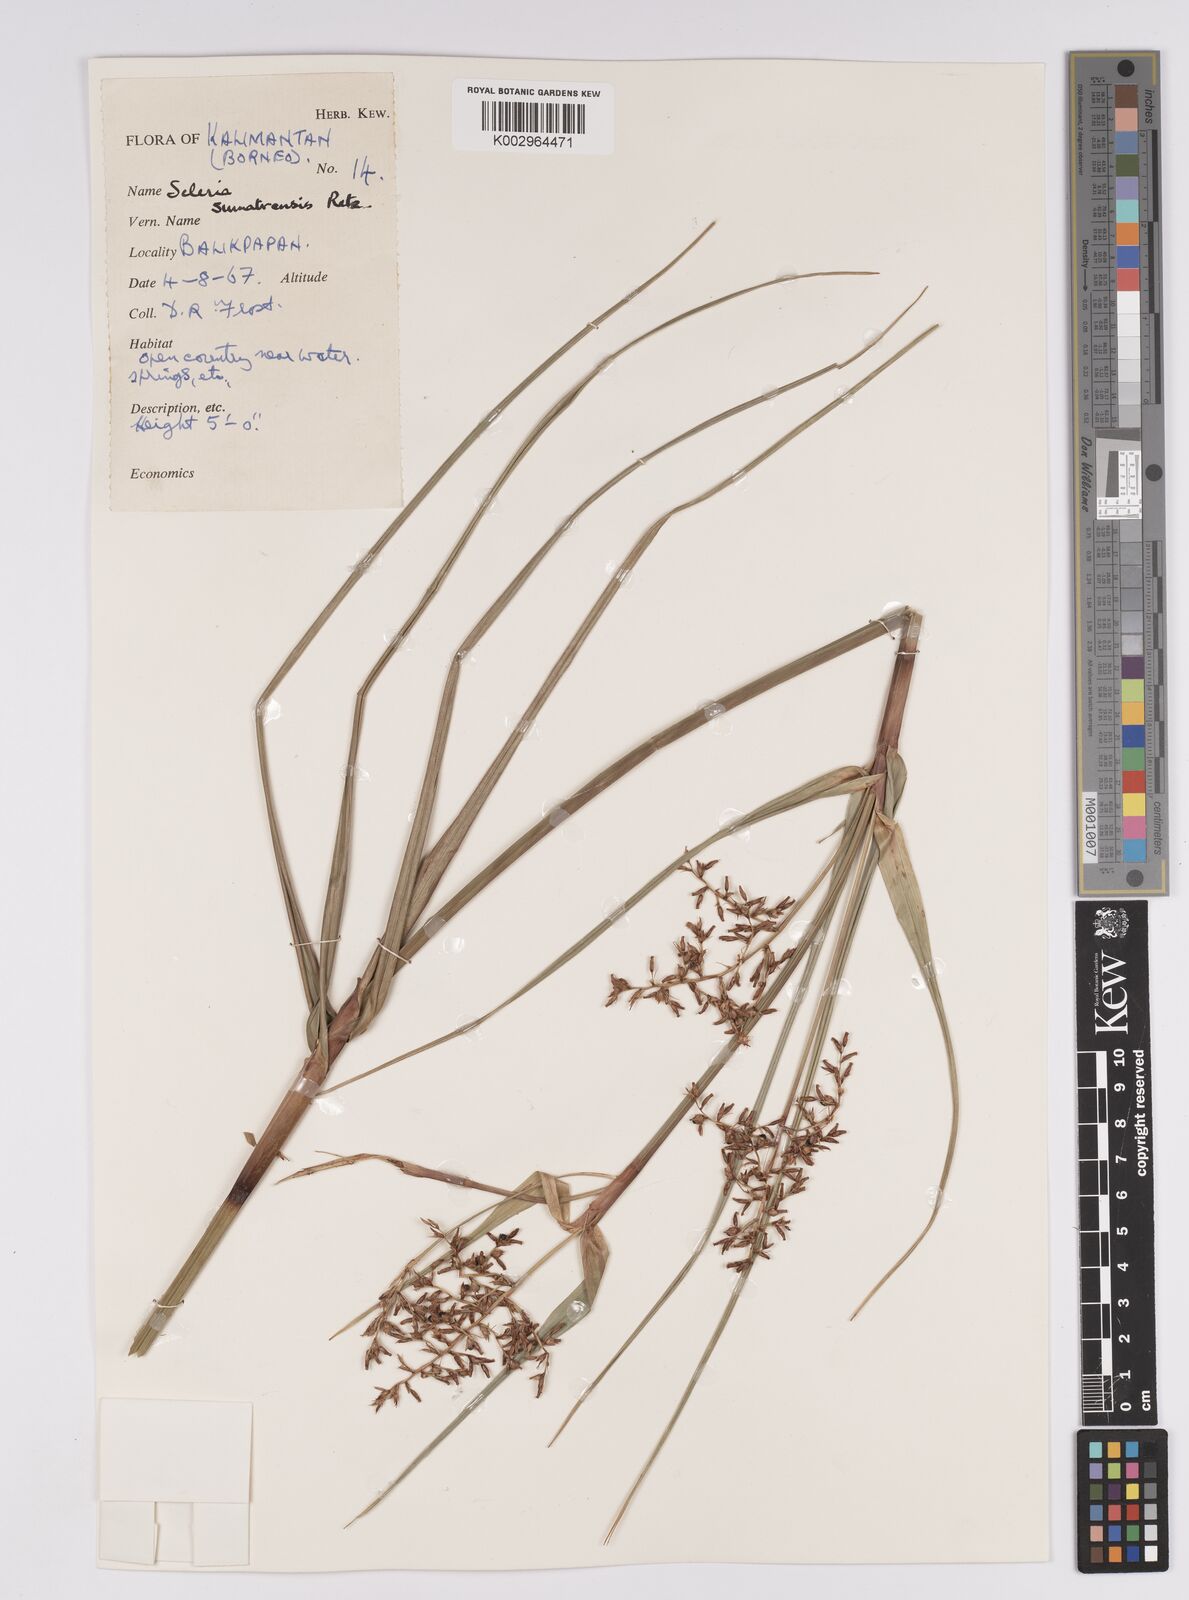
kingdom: Plantae
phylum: Tracheophyta
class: Liliopsida
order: Poales
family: Cyperaceae
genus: Scleria
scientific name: Scleria sumatrensis
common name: Sumatran scleria
